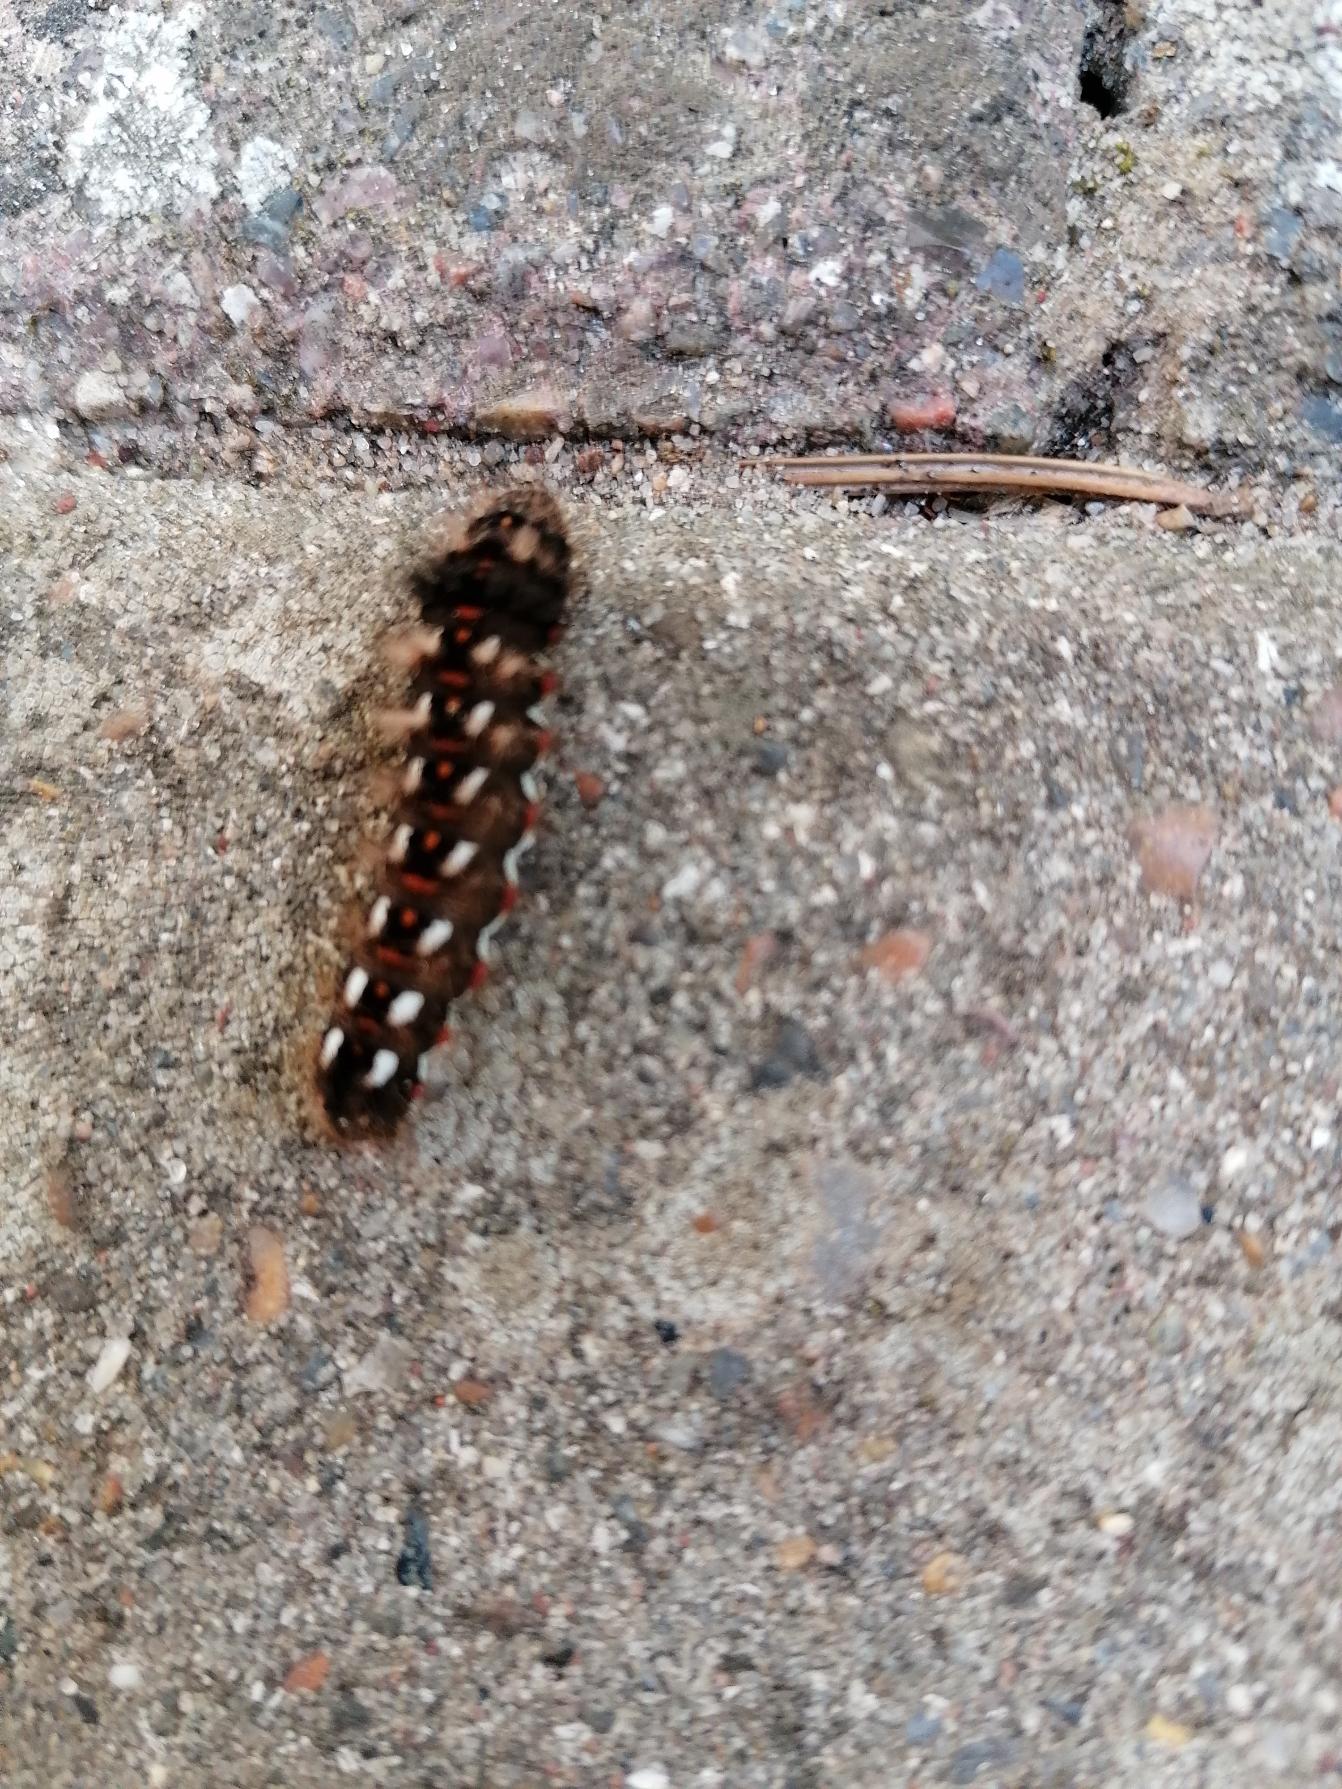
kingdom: Animalia
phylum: Arthropoda
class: Insecta
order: Lepidoptera
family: Noctuidae
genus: Acronicta
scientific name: Acronicta rumicis
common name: Syreugle
